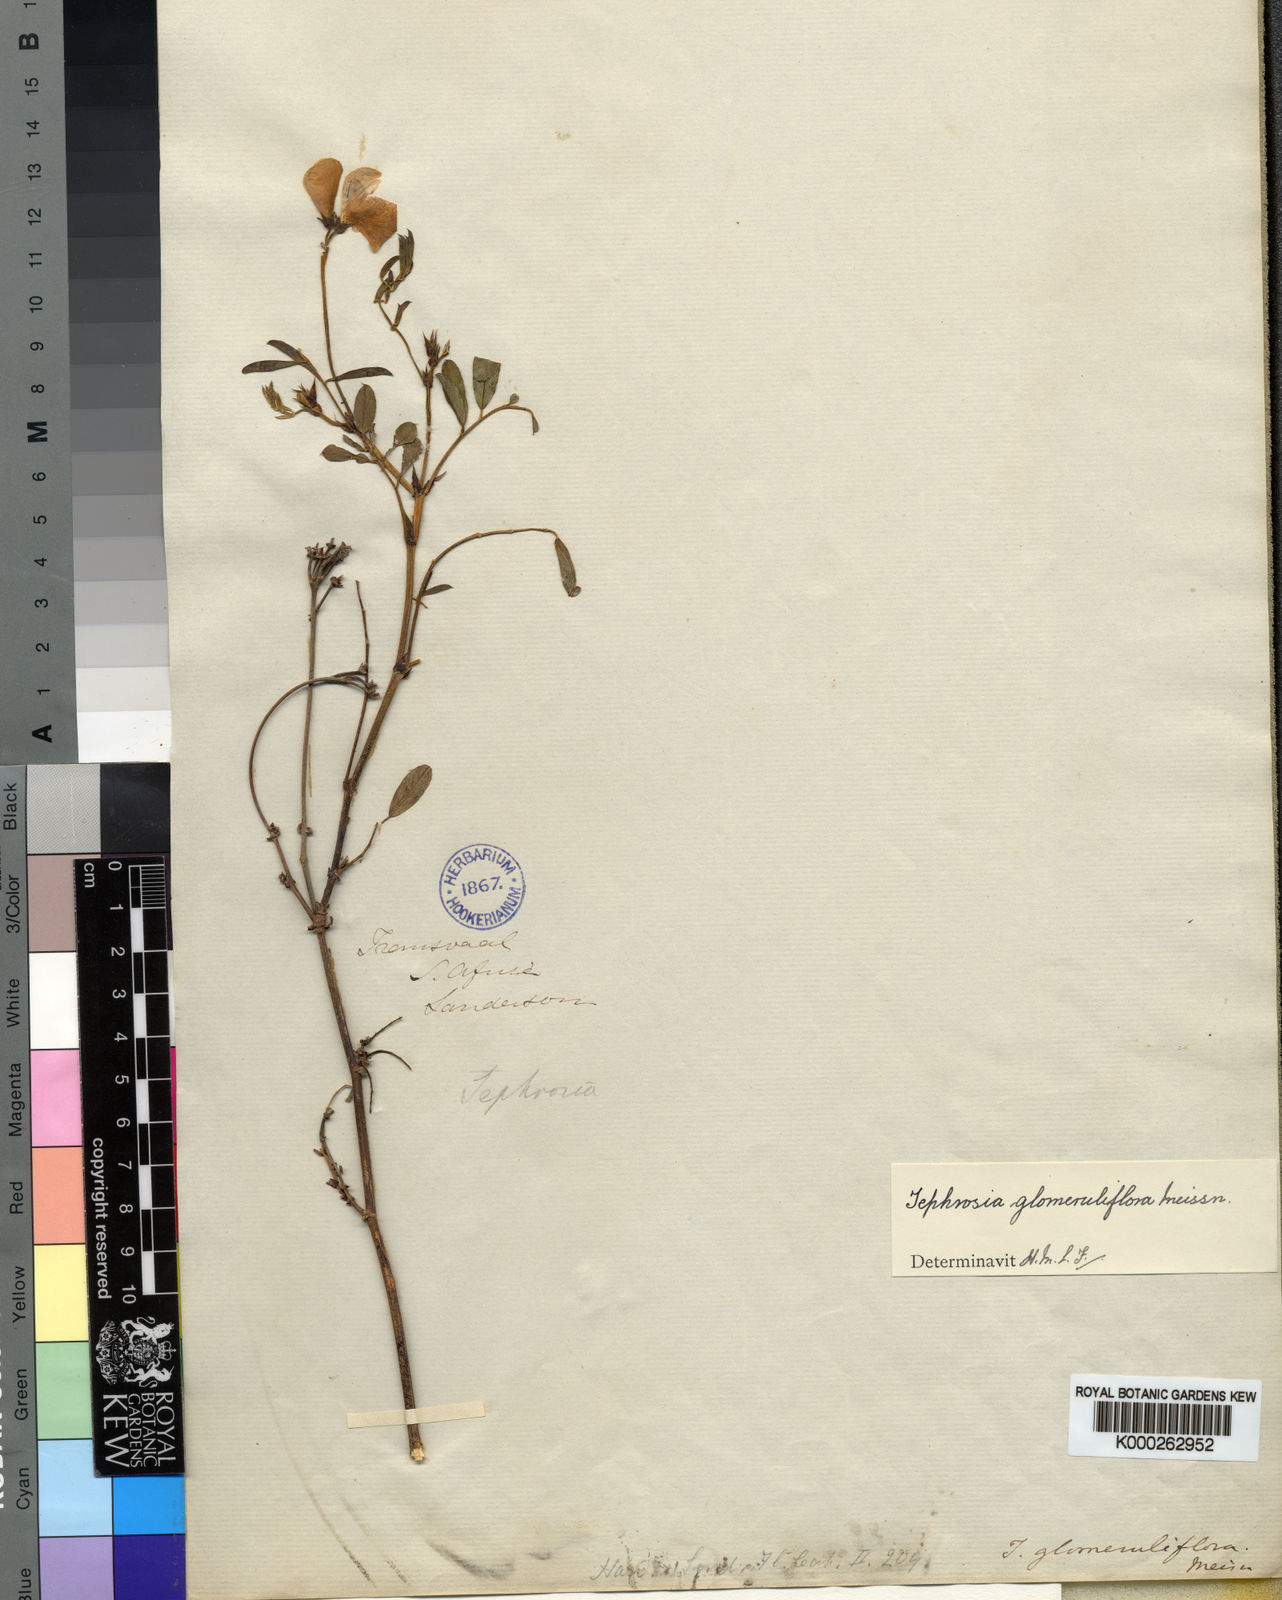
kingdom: Plantae
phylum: Tracheophyta
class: Magnoliopsida
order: Fabales
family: Fabaceae
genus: Tephrosia
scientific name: Tephrosia glomeruliflora
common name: Pink tephrosia
